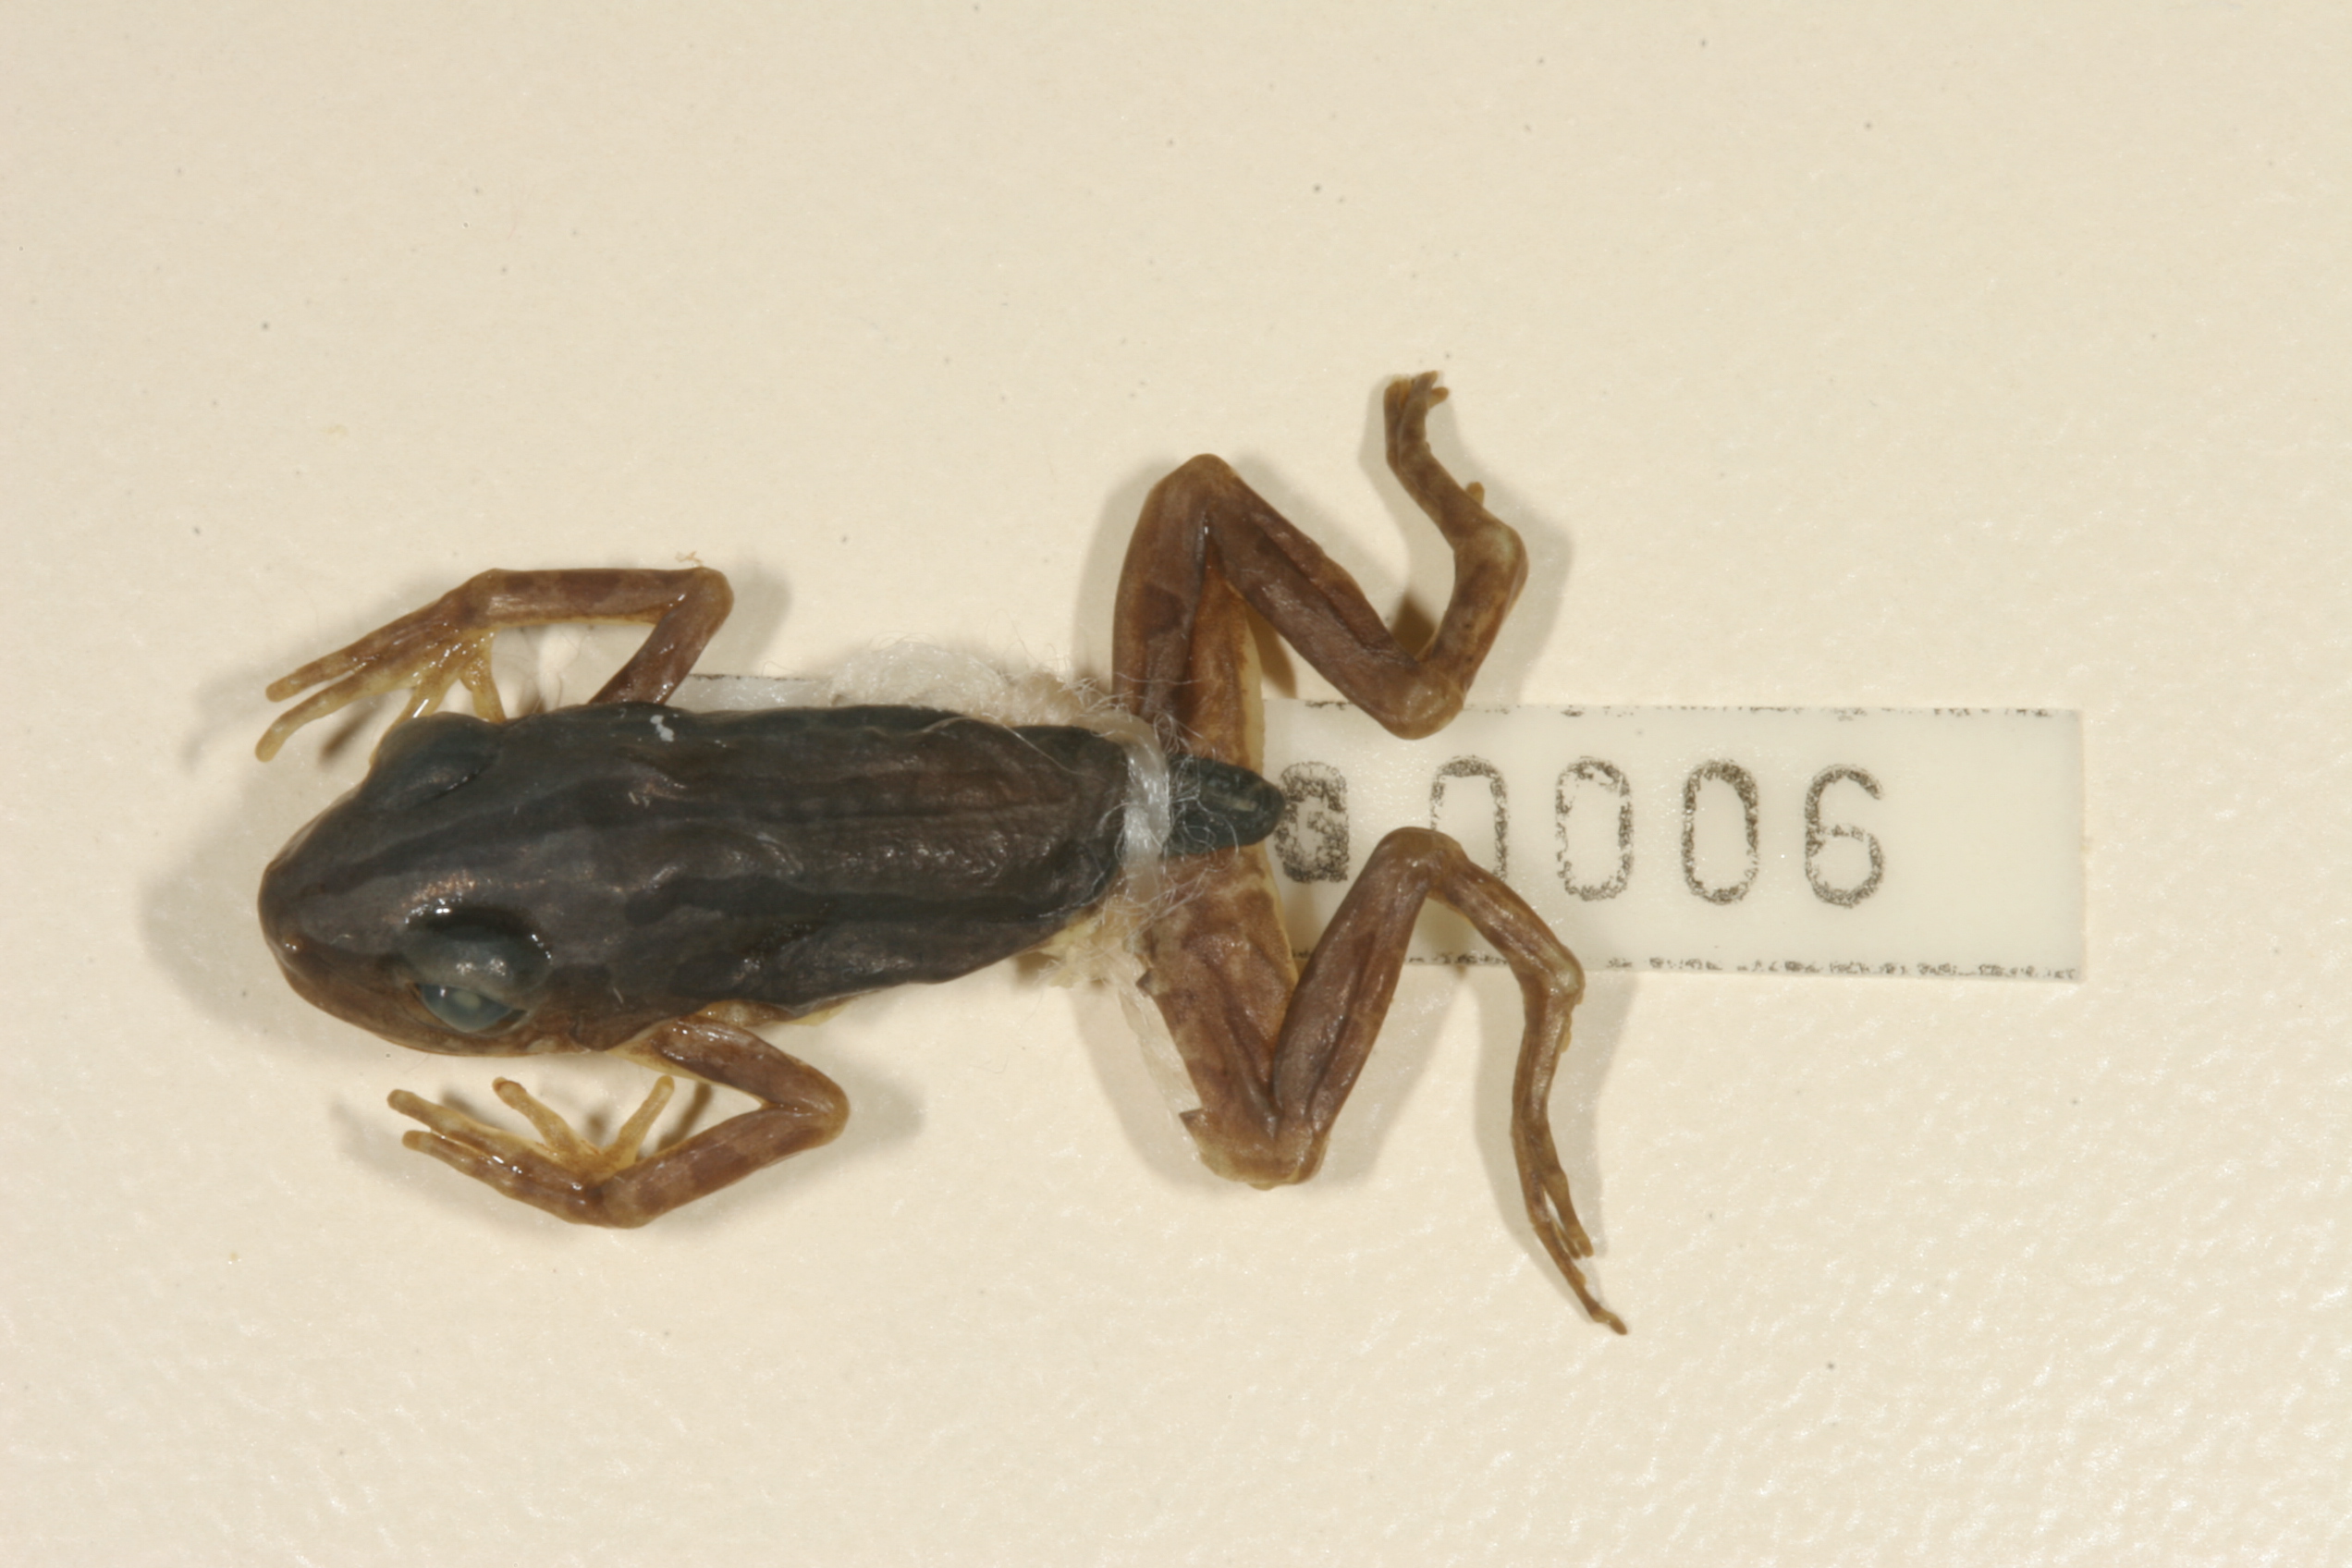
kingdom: Animalia
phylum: Chordata
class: Amphibia
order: Anura
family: Pyxicephalidae
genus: Pyxicephalus
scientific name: Pyxicephalus edulis
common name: Peter's bullfrog
